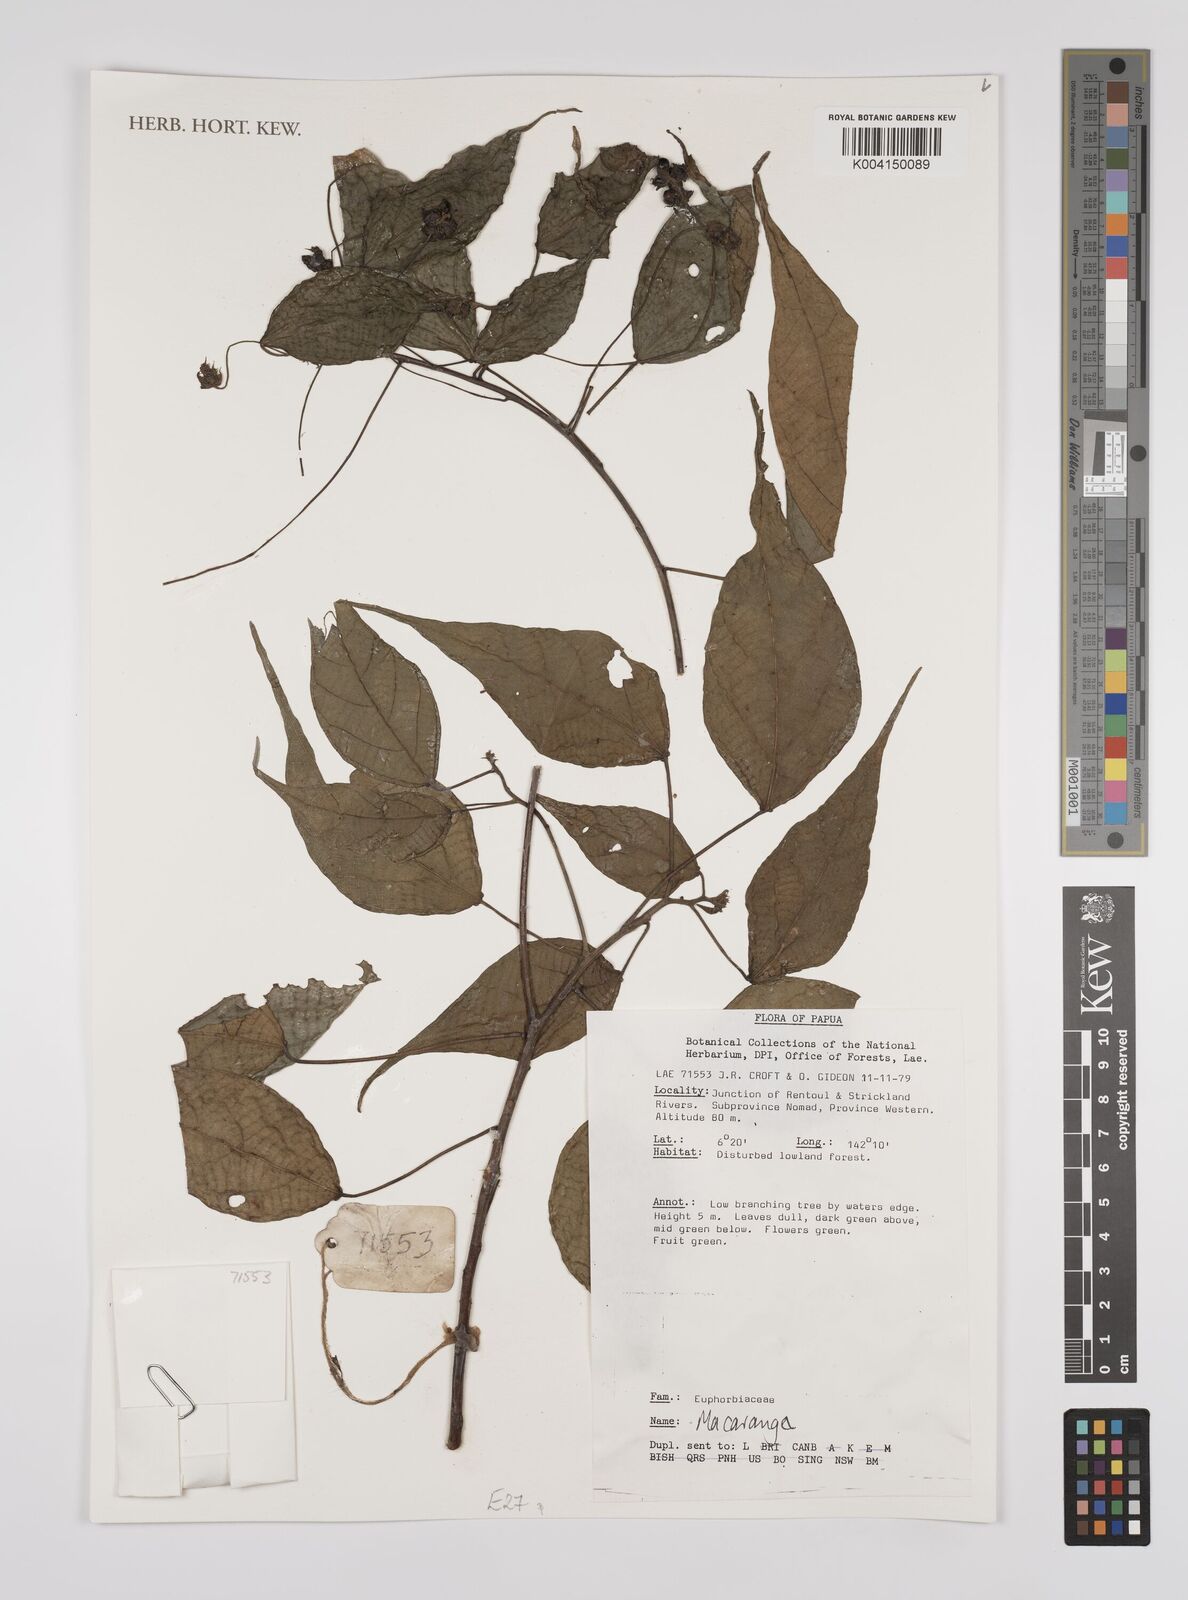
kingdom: Plantae
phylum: Tracheophyta
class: Magnoliopsida
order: Malpighiales
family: Euphorbiaceae
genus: Macaranga
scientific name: Macaranga
